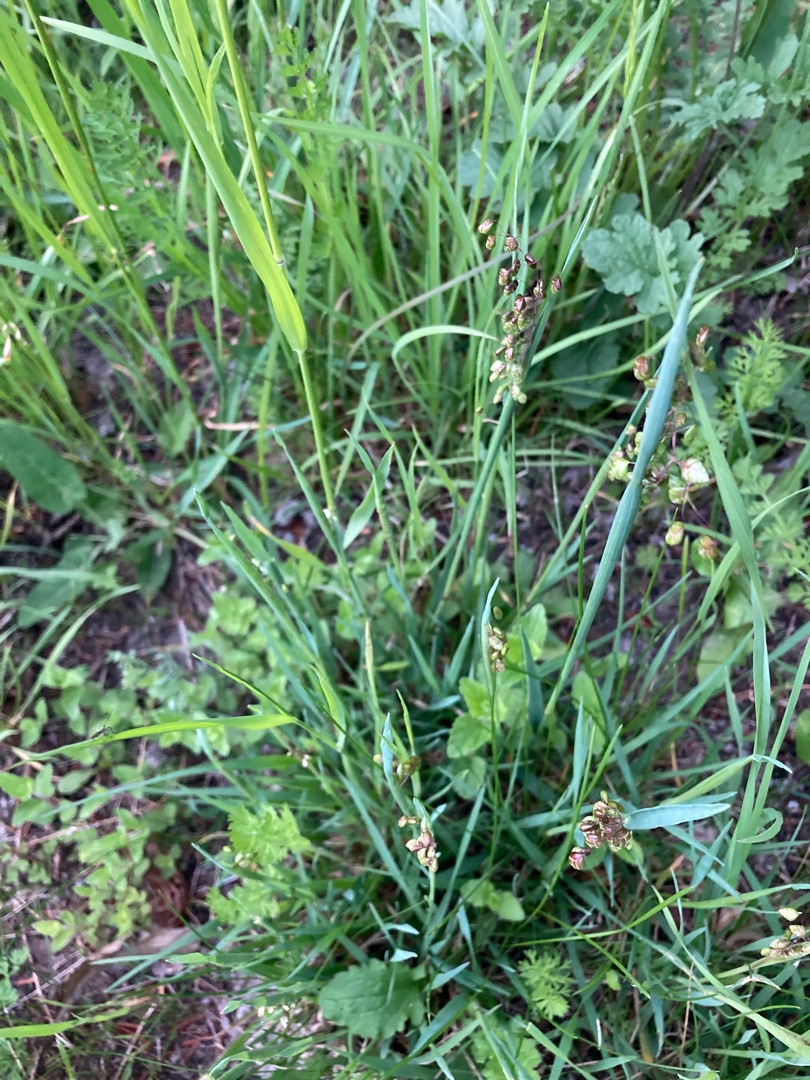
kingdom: Plantae
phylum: Tracheophyta
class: Liliopsida
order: Poales
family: Poaceae
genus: Briza
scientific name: Briza media
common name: Hjertegræs
